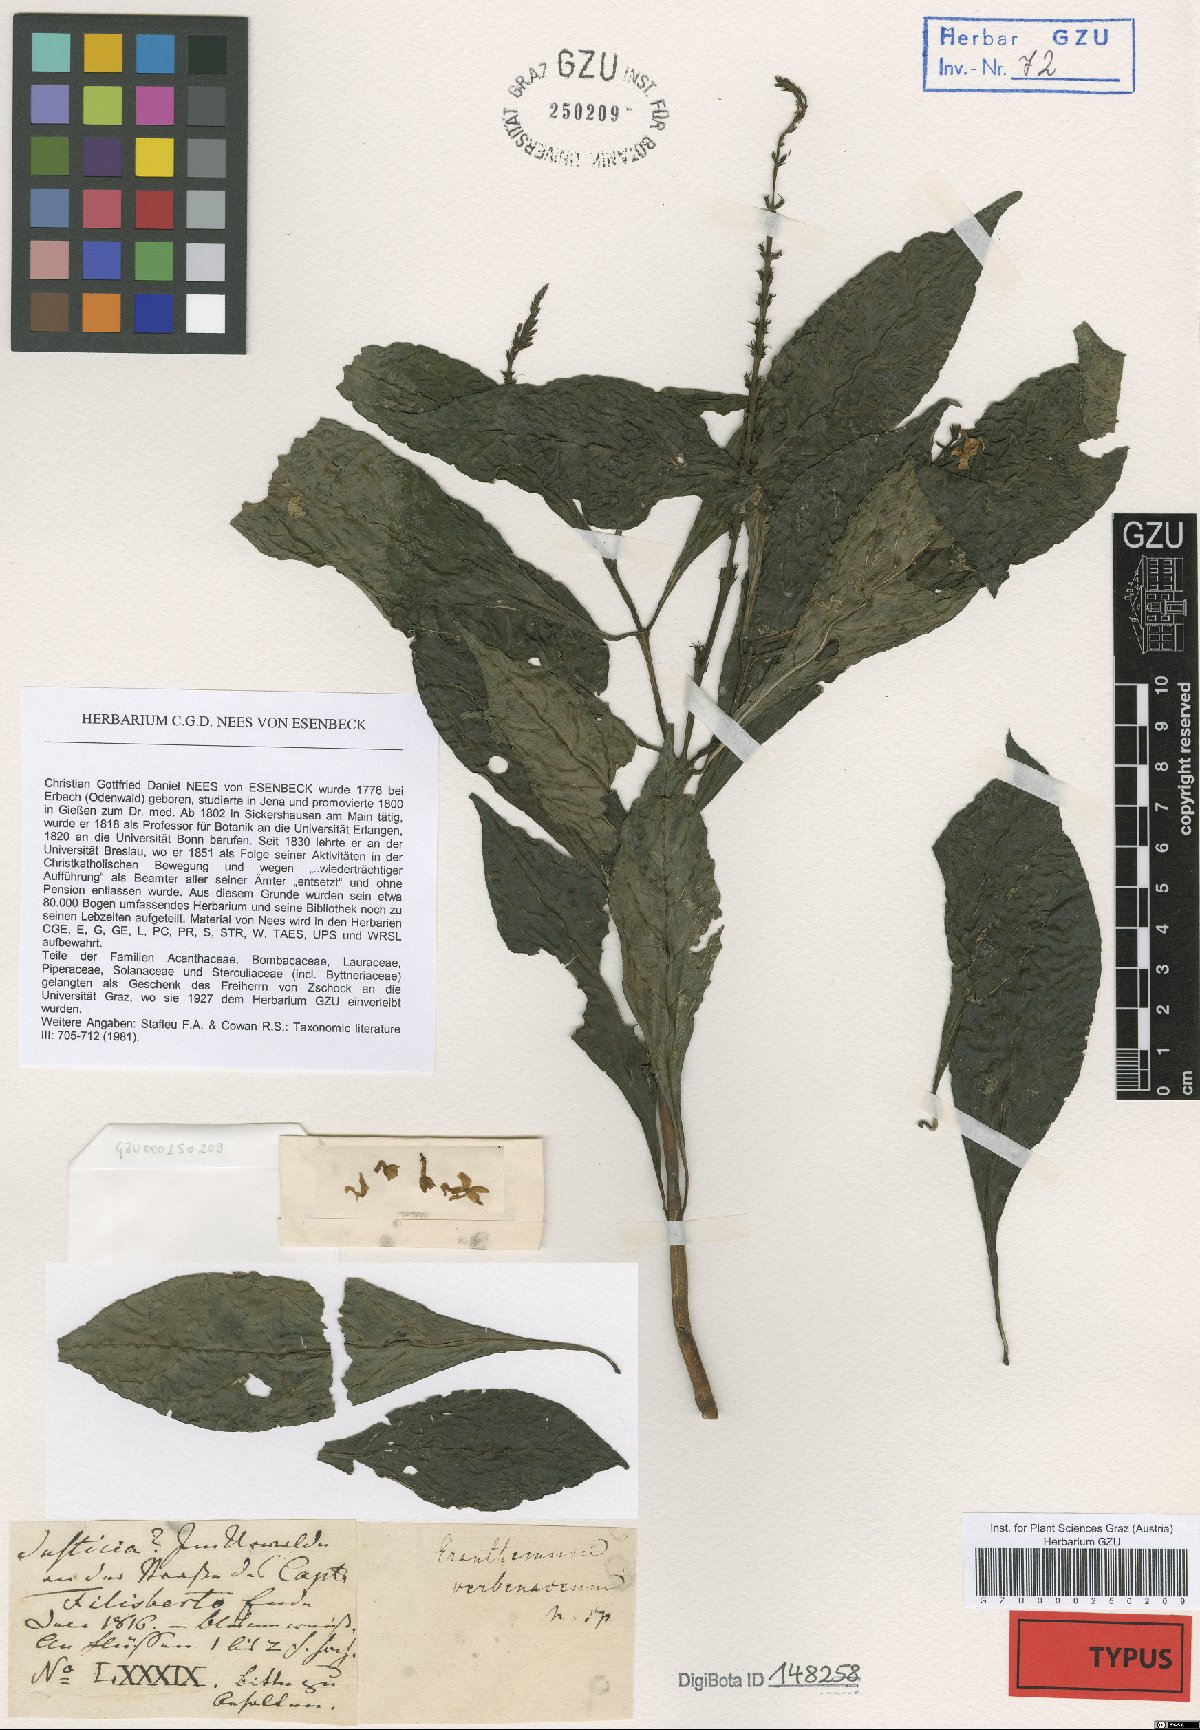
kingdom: Plantae
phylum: Tracheophyta
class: Magnoliopsida
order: Lamiales
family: Acanthaceae
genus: Pseuderanthemum
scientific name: Pseuderanthemum verbenaceum
